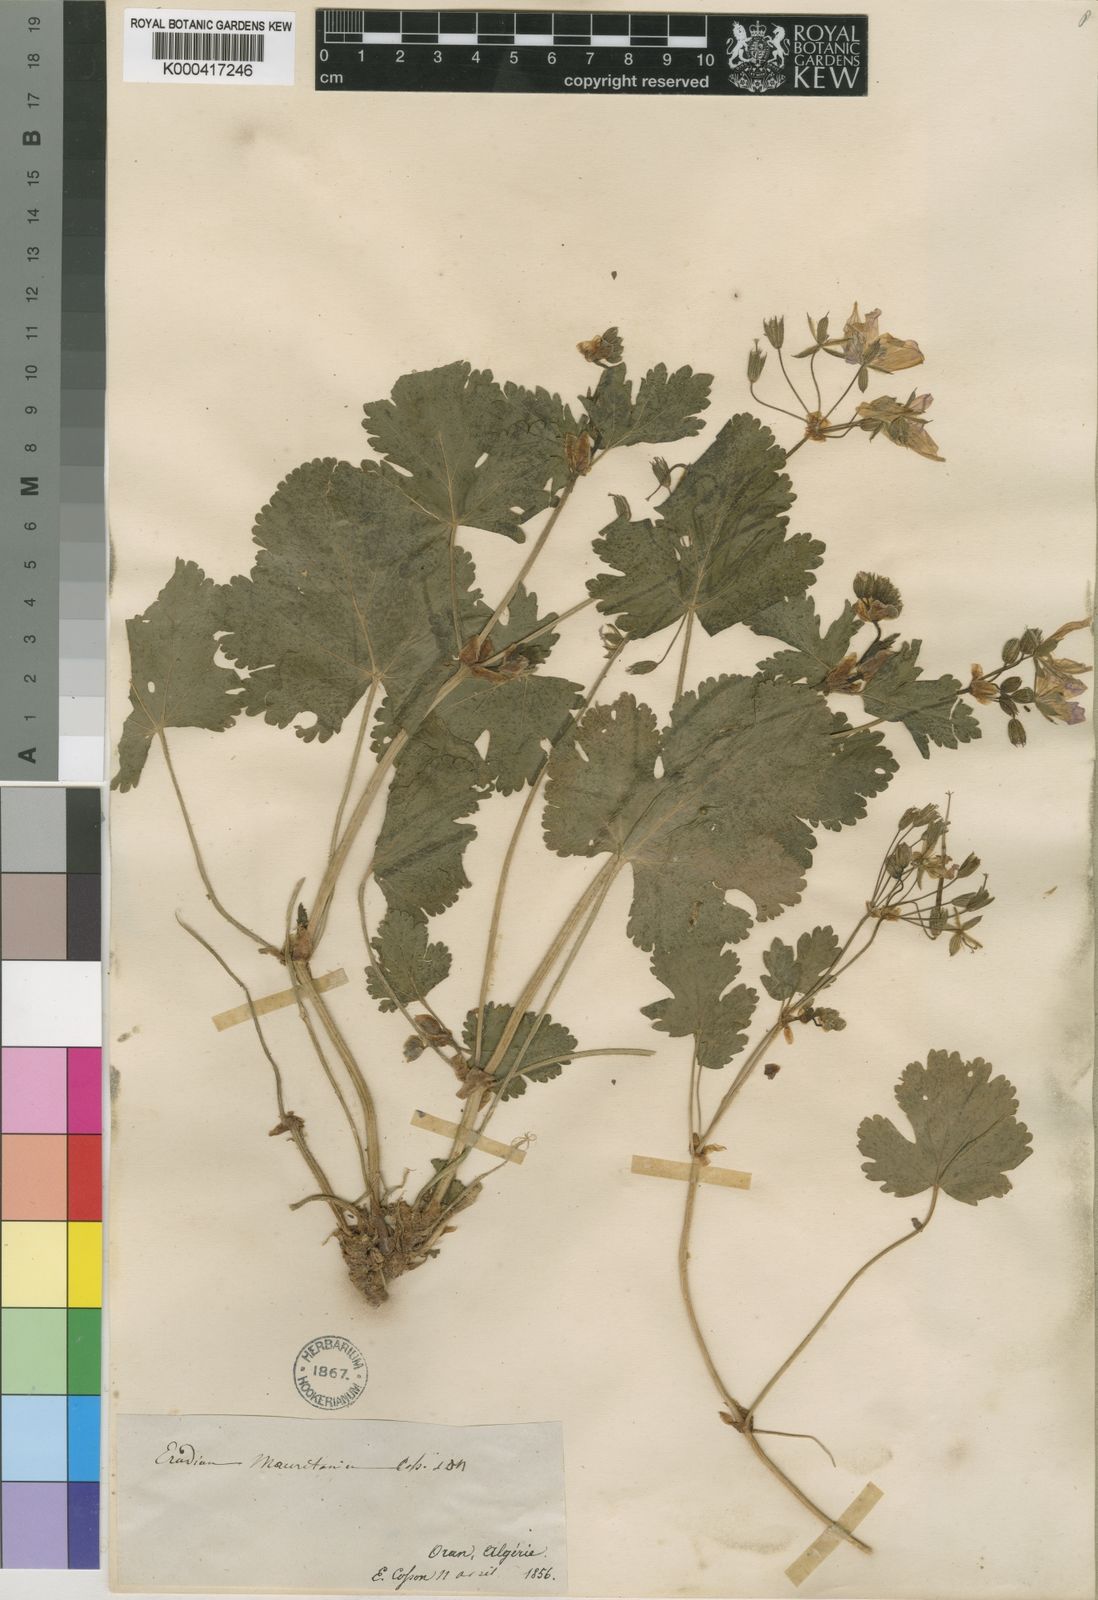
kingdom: Plantae
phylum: Tracheophyta
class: Magnoliopsida
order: Geraniales
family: Geraniaceae
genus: Erodium
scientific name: Erodium munbyanum
